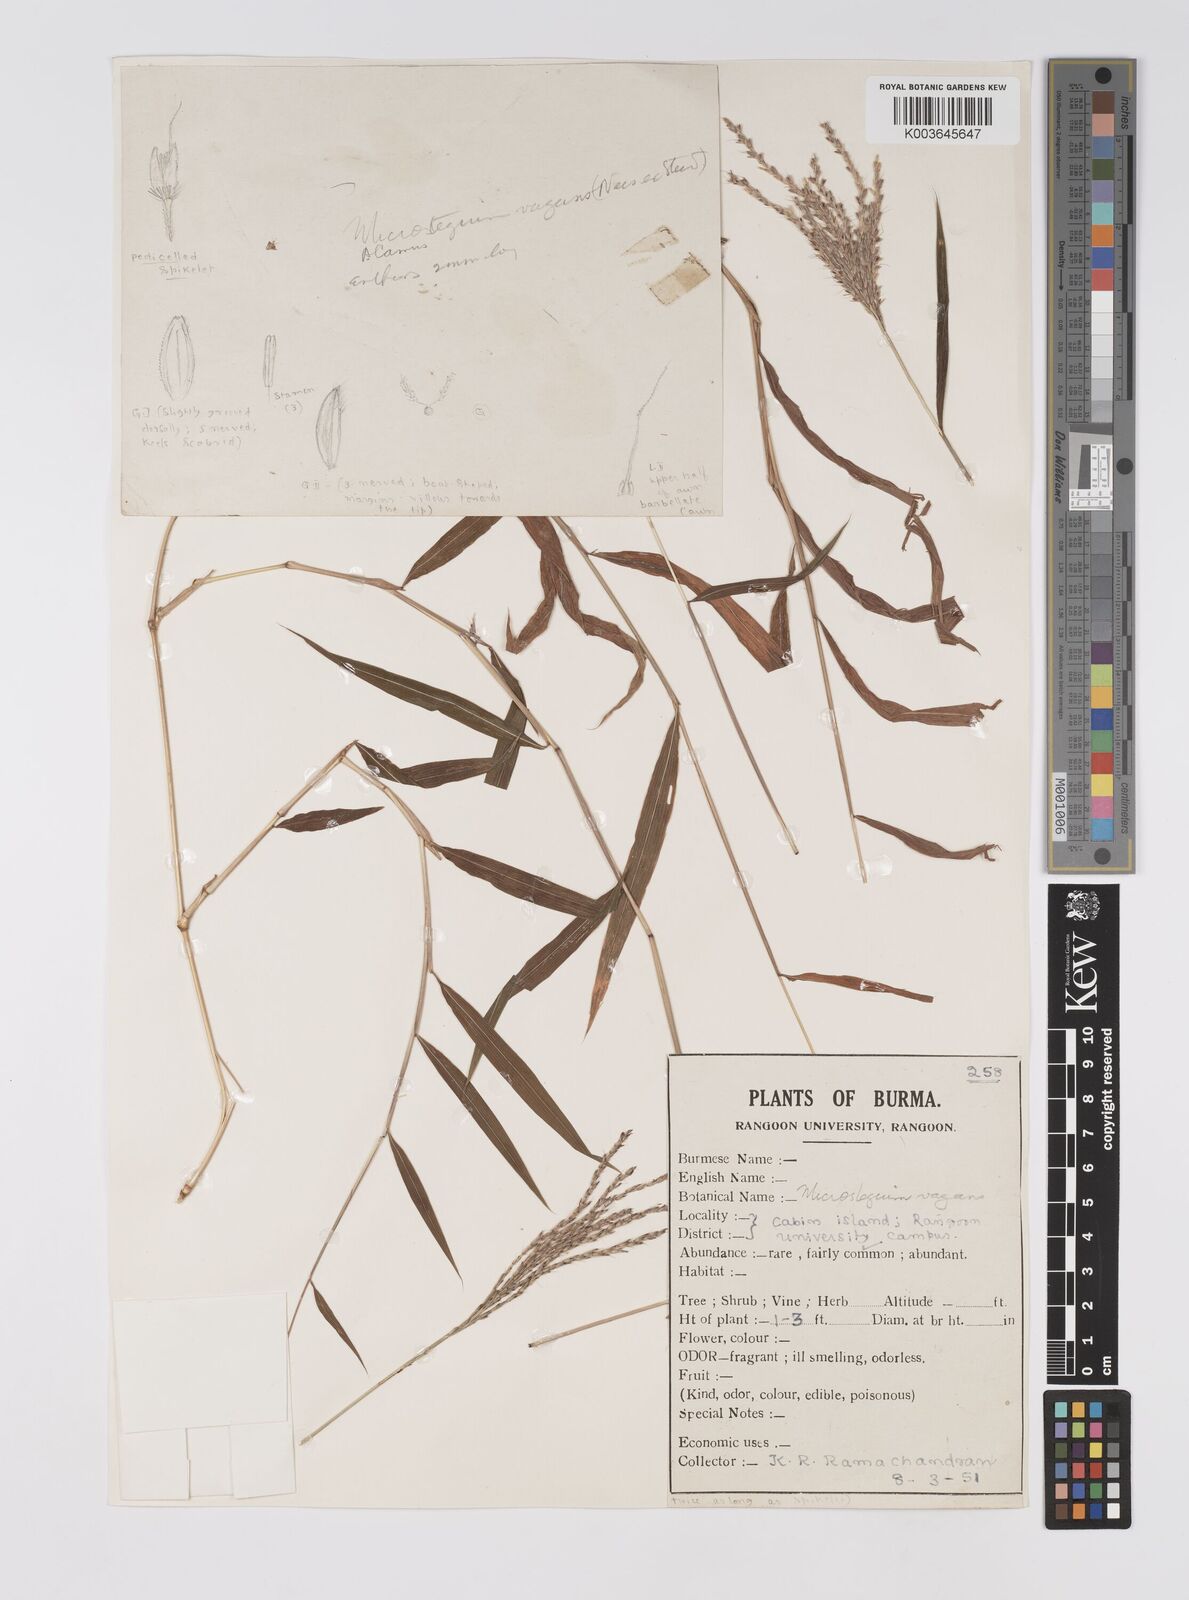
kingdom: Plantae
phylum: Tracheophyta
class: Liliopsida
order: Poales
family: Poaceae
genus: Microstegium
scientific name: Microstegium fasciculatum
